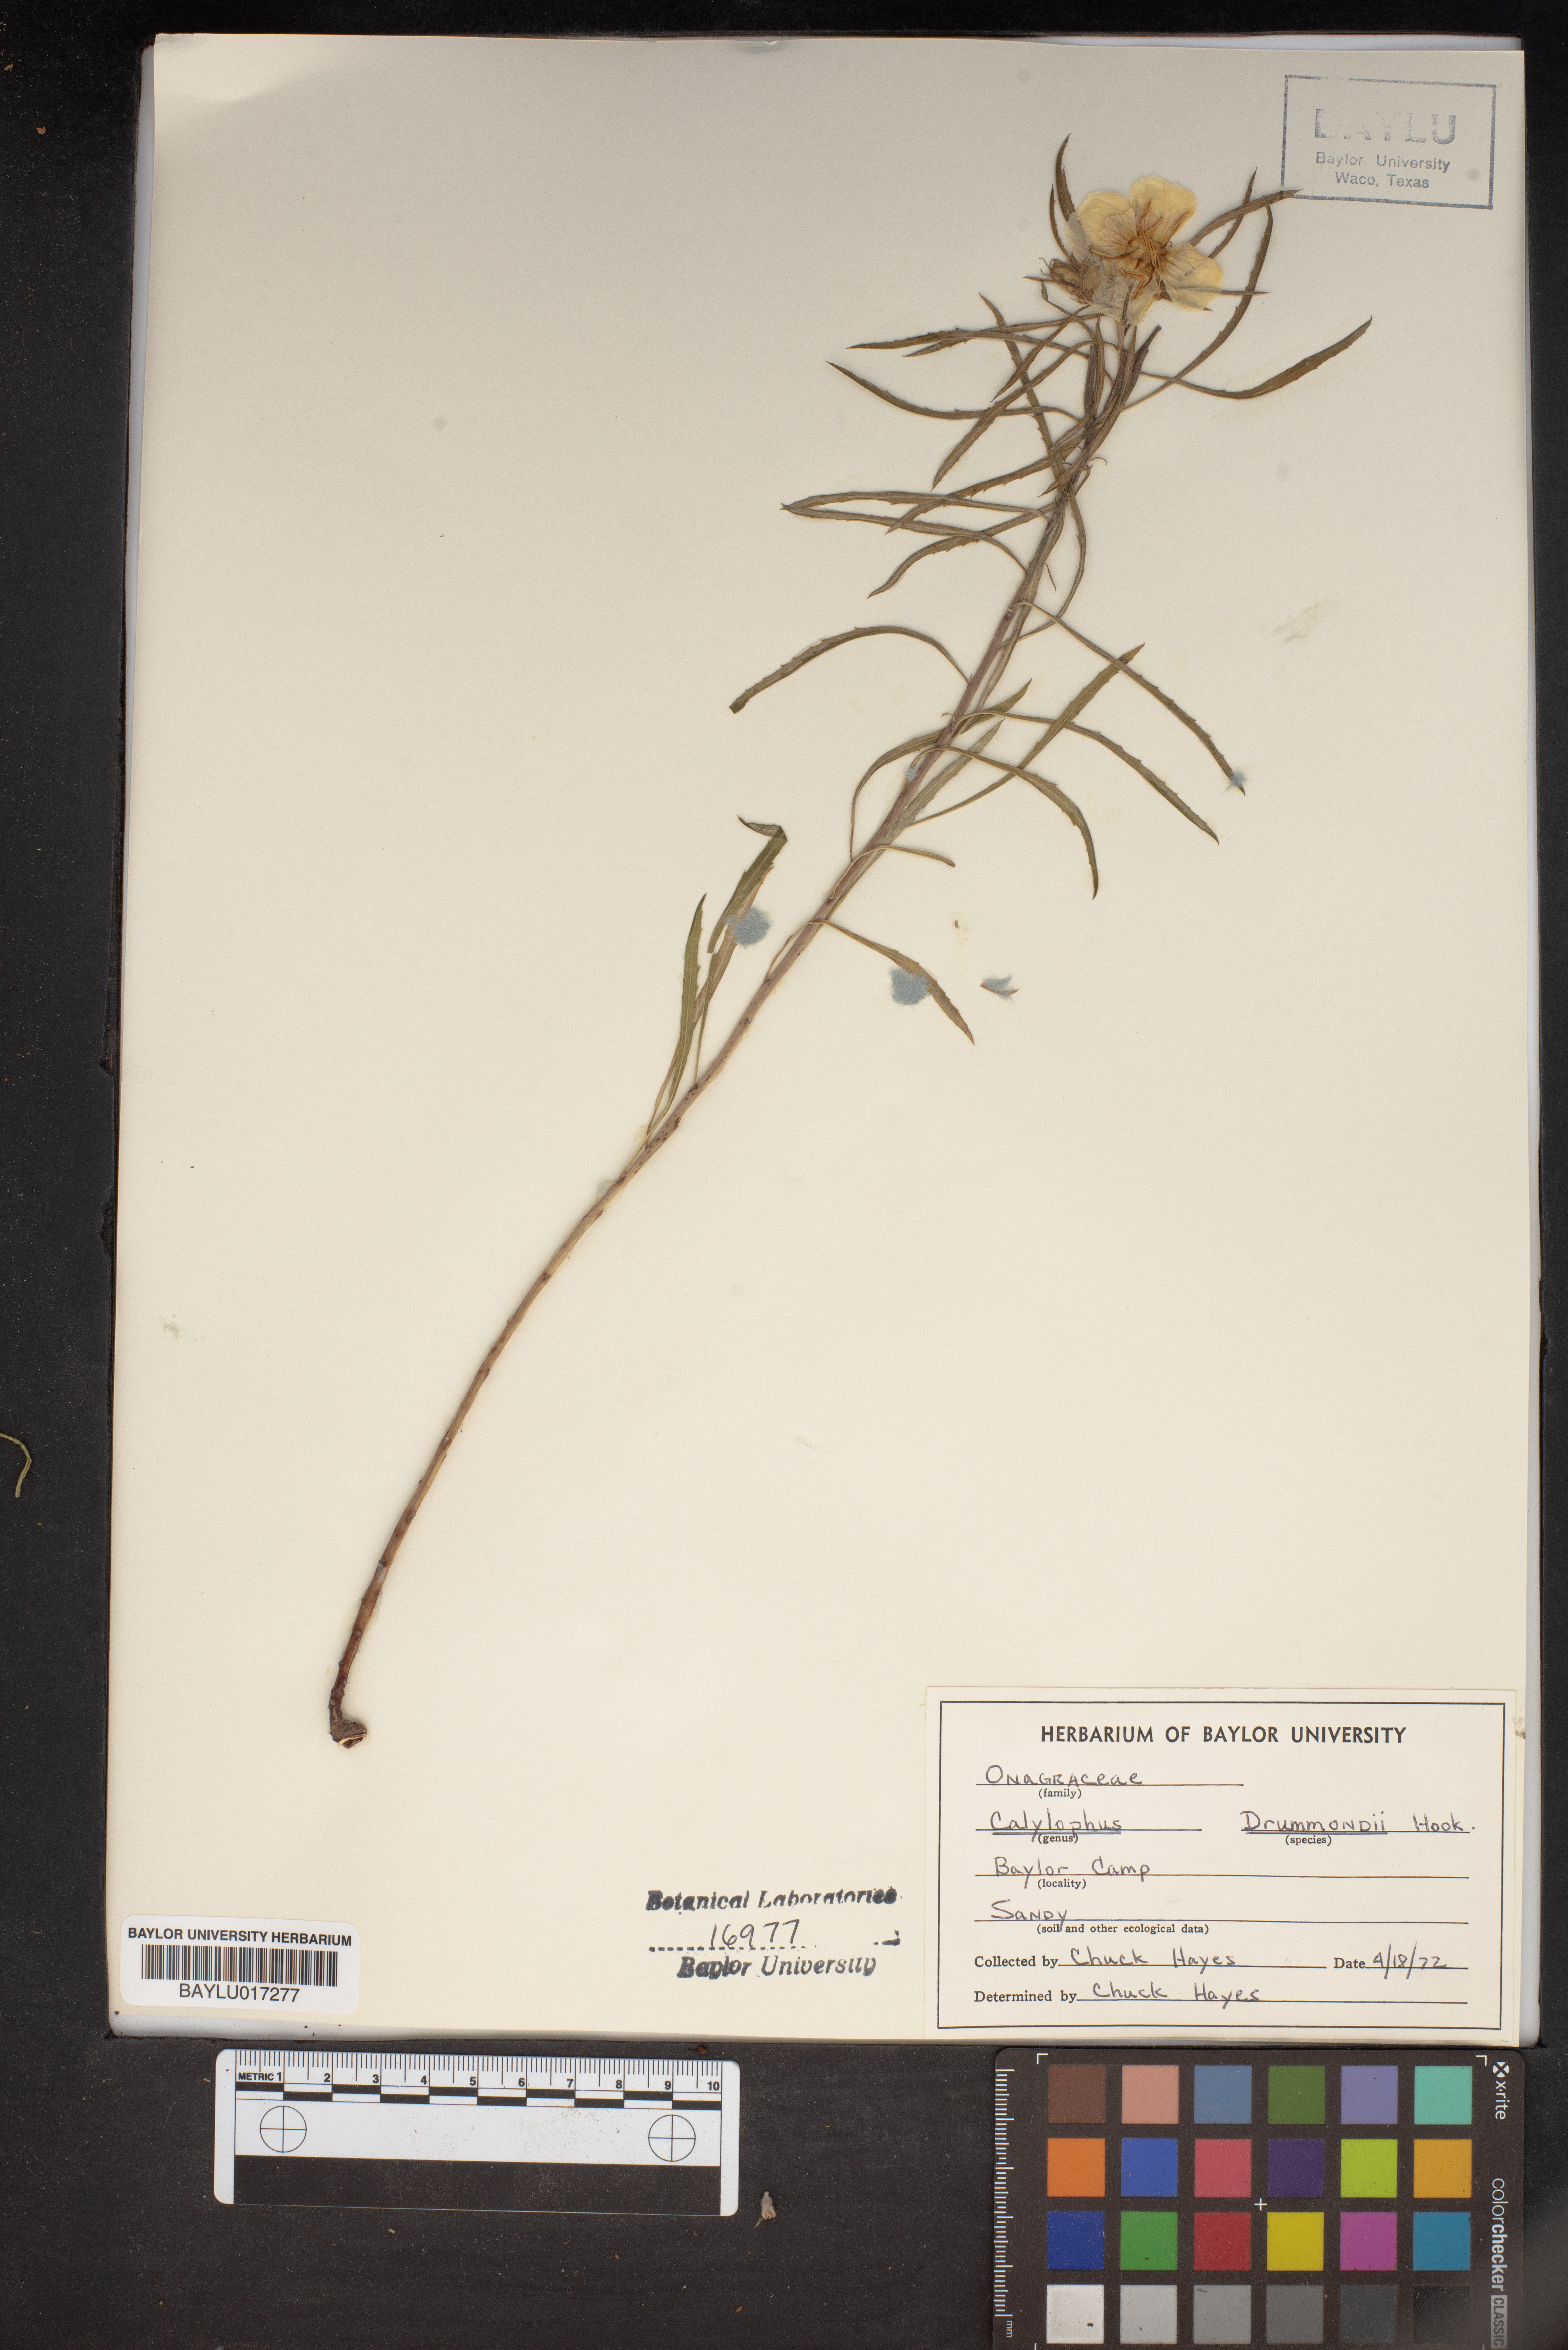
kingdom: Plantae
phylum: Tracheophyta
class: Magnoliopsida
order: Myrtales
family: Onagraceae
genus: Oenothera
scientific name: Oenothera serrulata
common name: Half-shrub calylophus
